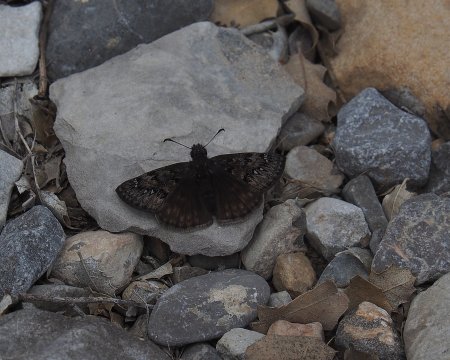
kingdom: Animalia
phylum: Arthropoda
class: Insecta
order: Lepidoptera
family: Hesperiidae
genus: Erynnis
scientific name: Erynnis
